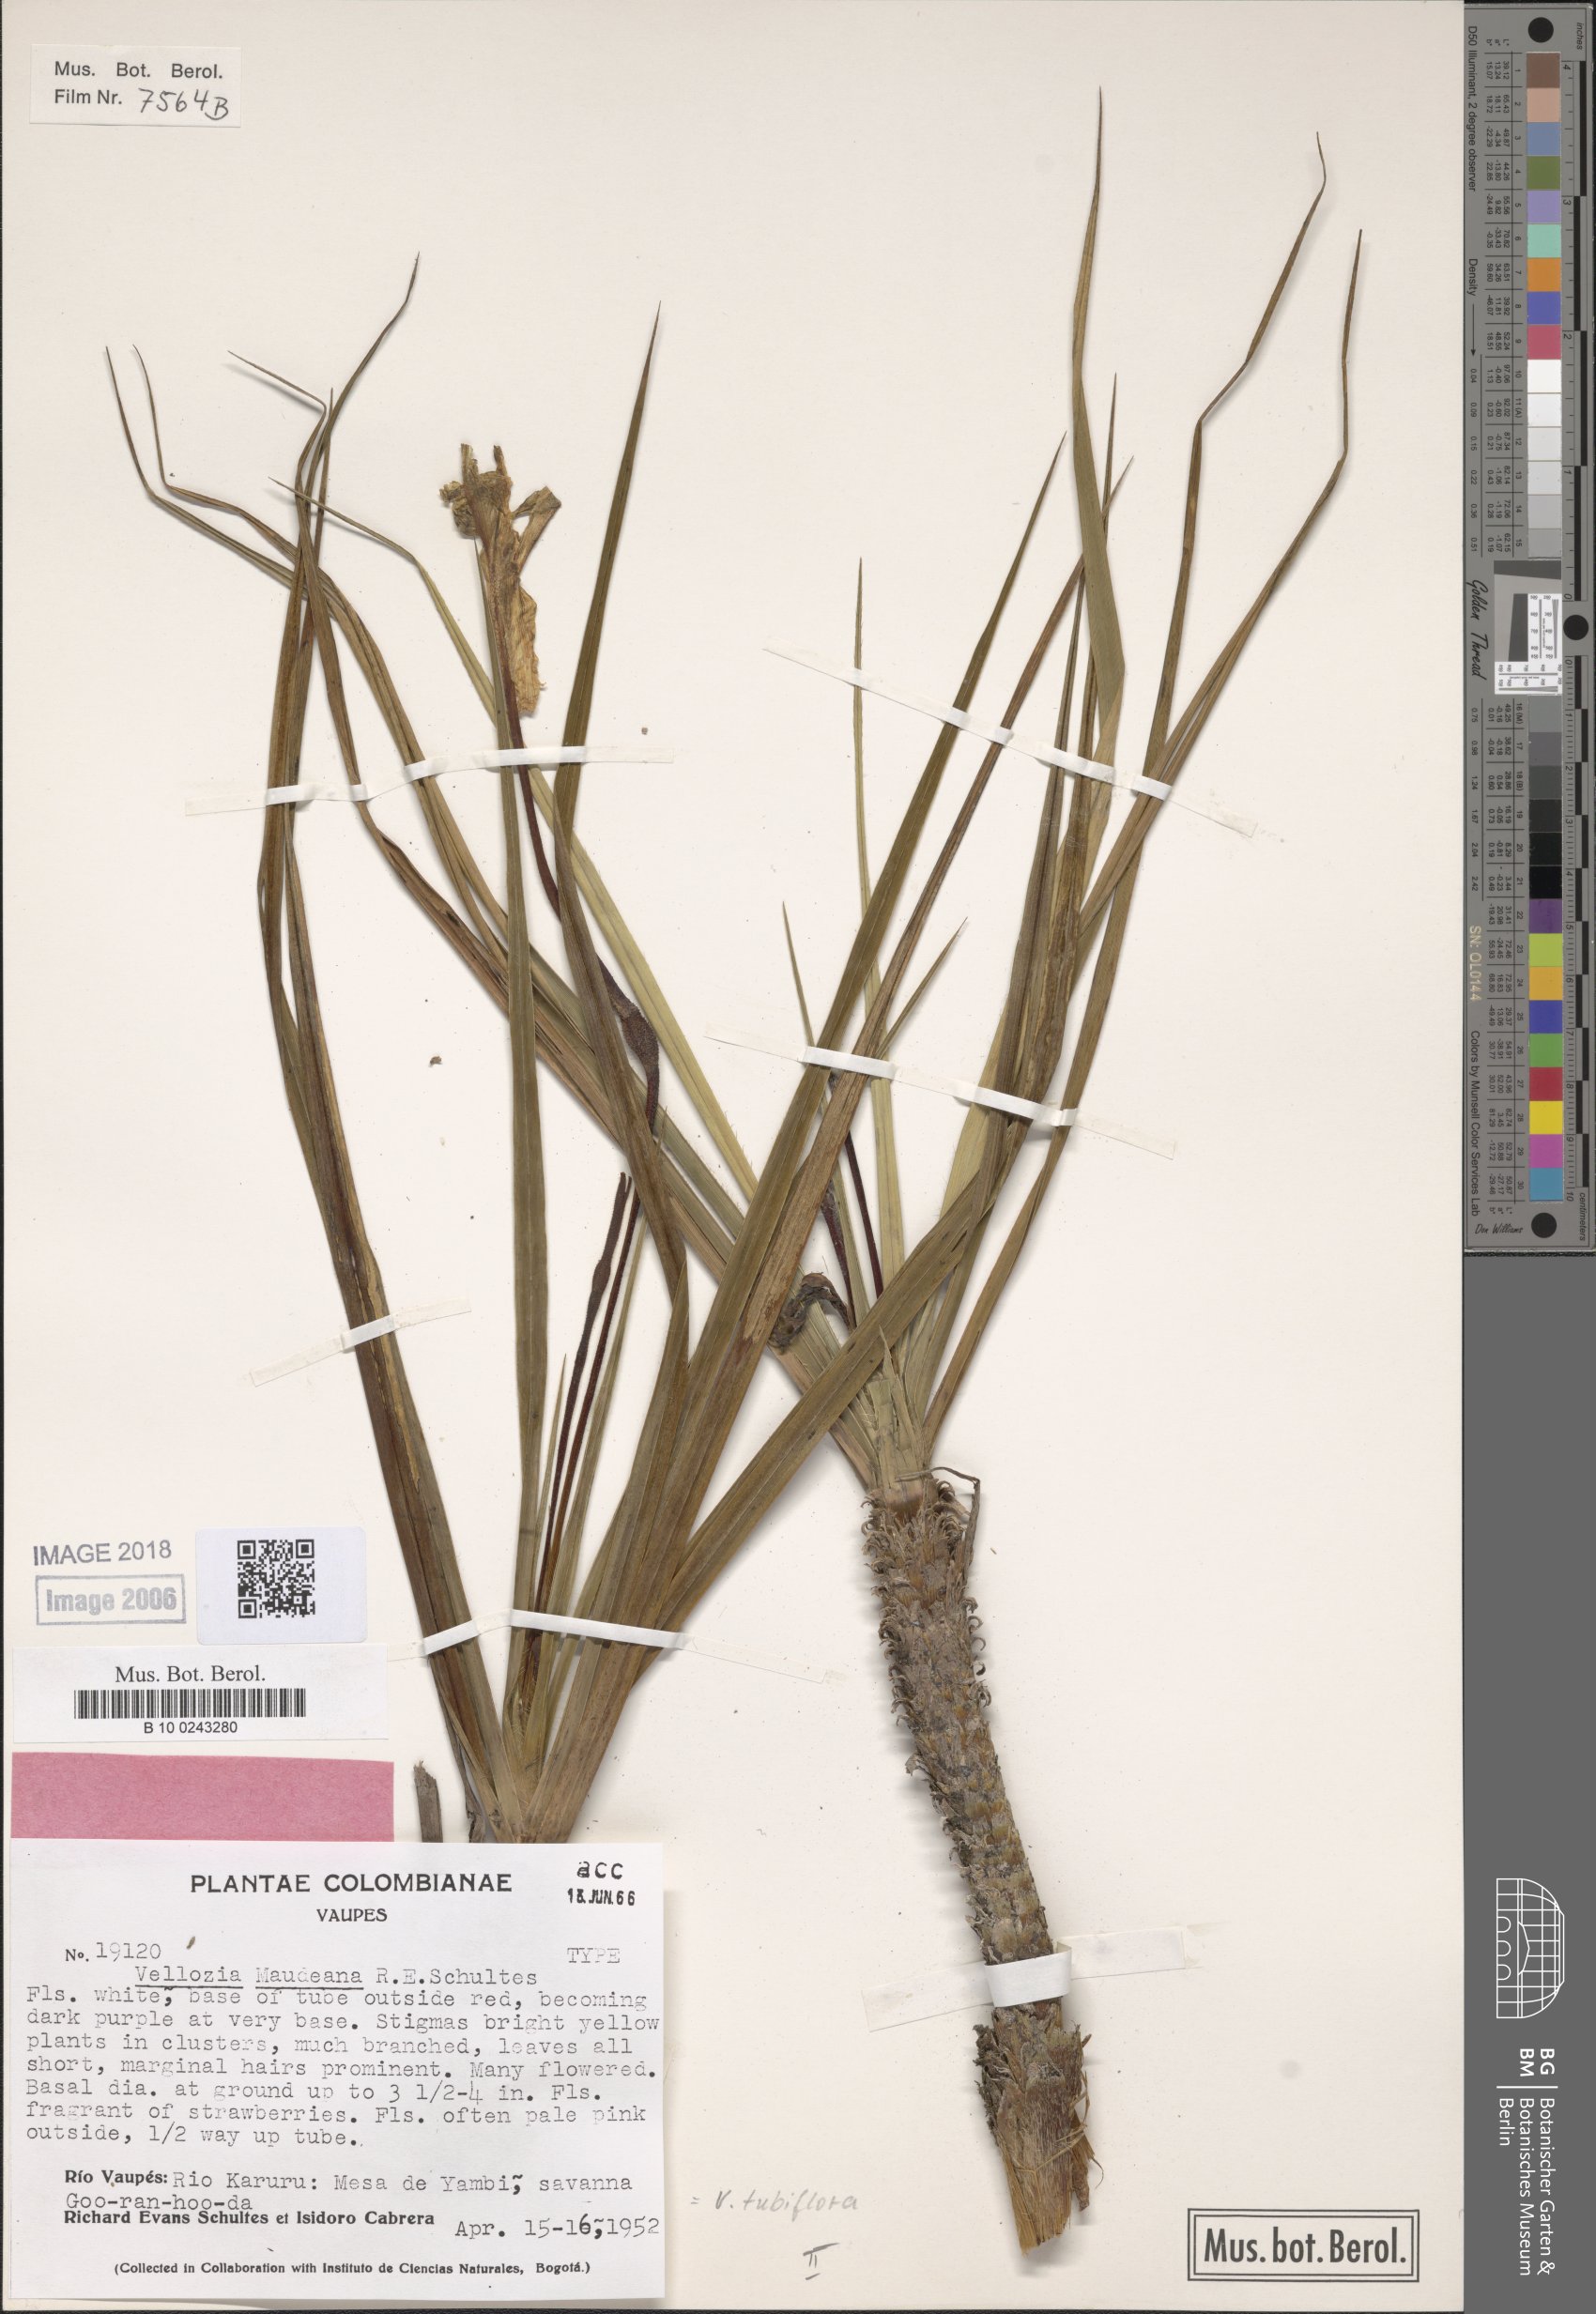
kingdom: Plantae
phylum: Tracheophyta
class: Liliopsida
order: Pandanales
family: Velloziaceae
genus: Vellozia
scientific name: Vellozia tubiflora
